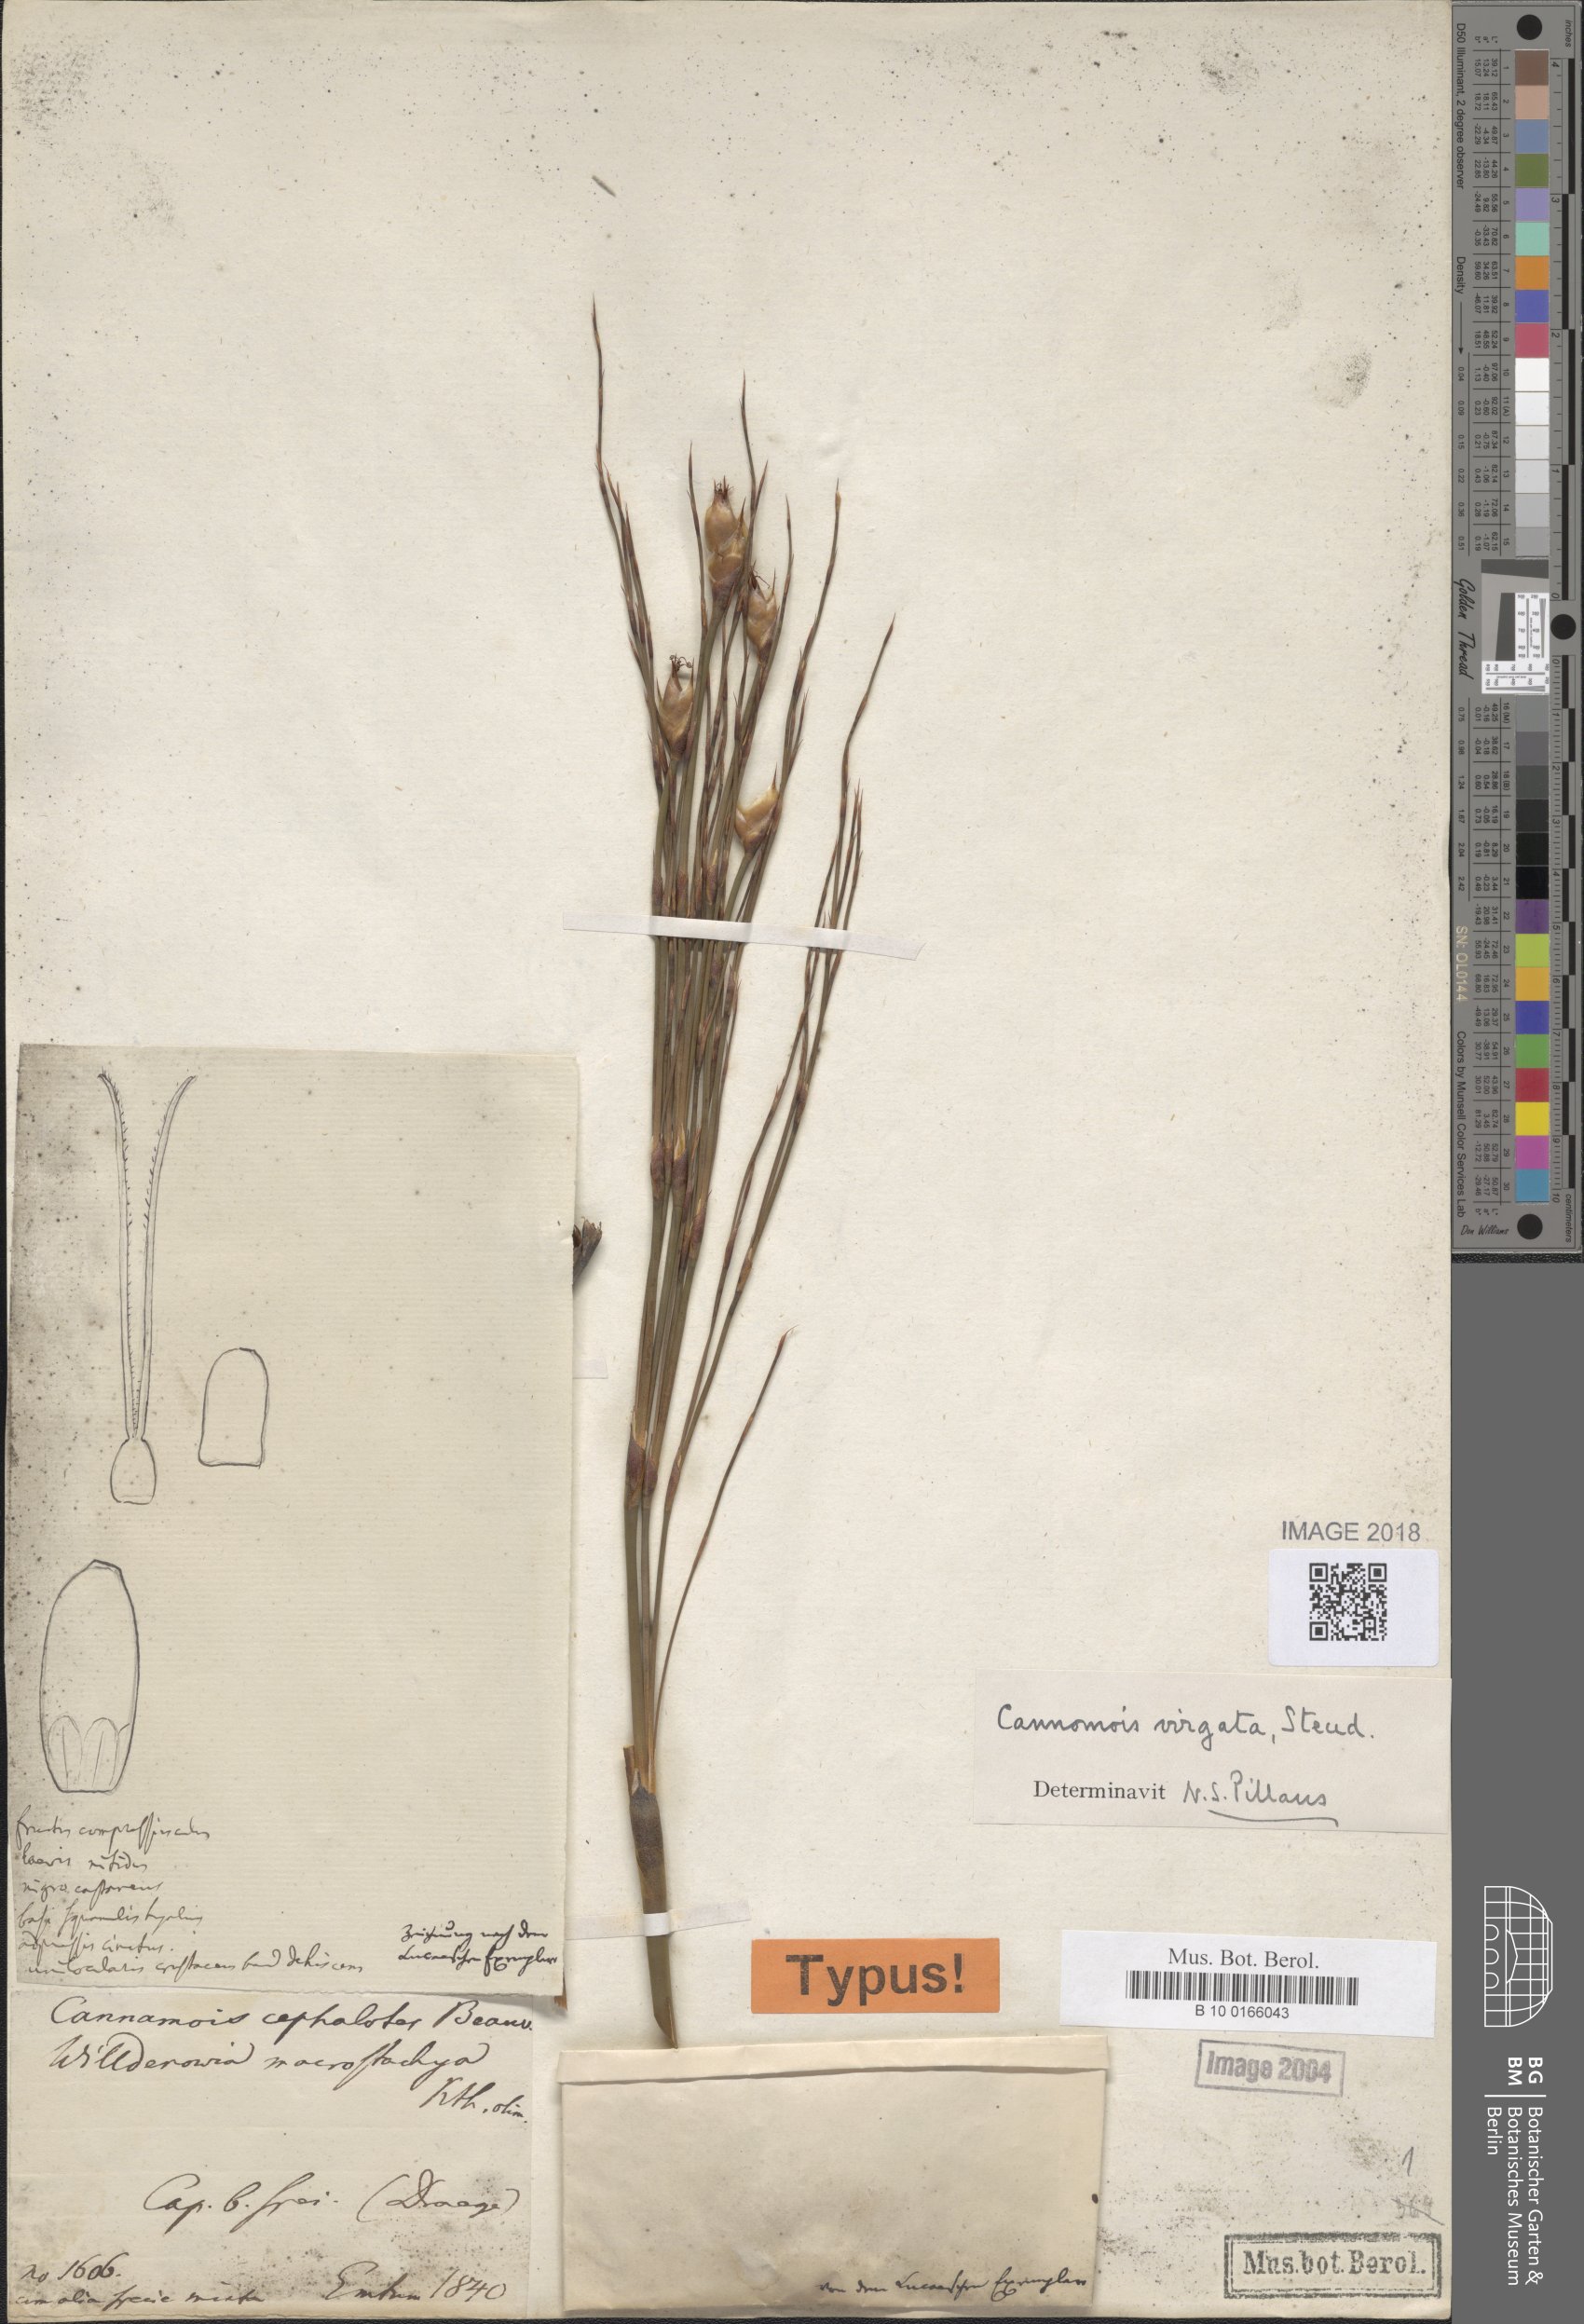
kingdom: Plantae
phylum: Tracheophyta
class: Liliopsida
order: Poales
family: Restionaceae
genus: Cannomois
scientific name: Cannomois robusta
